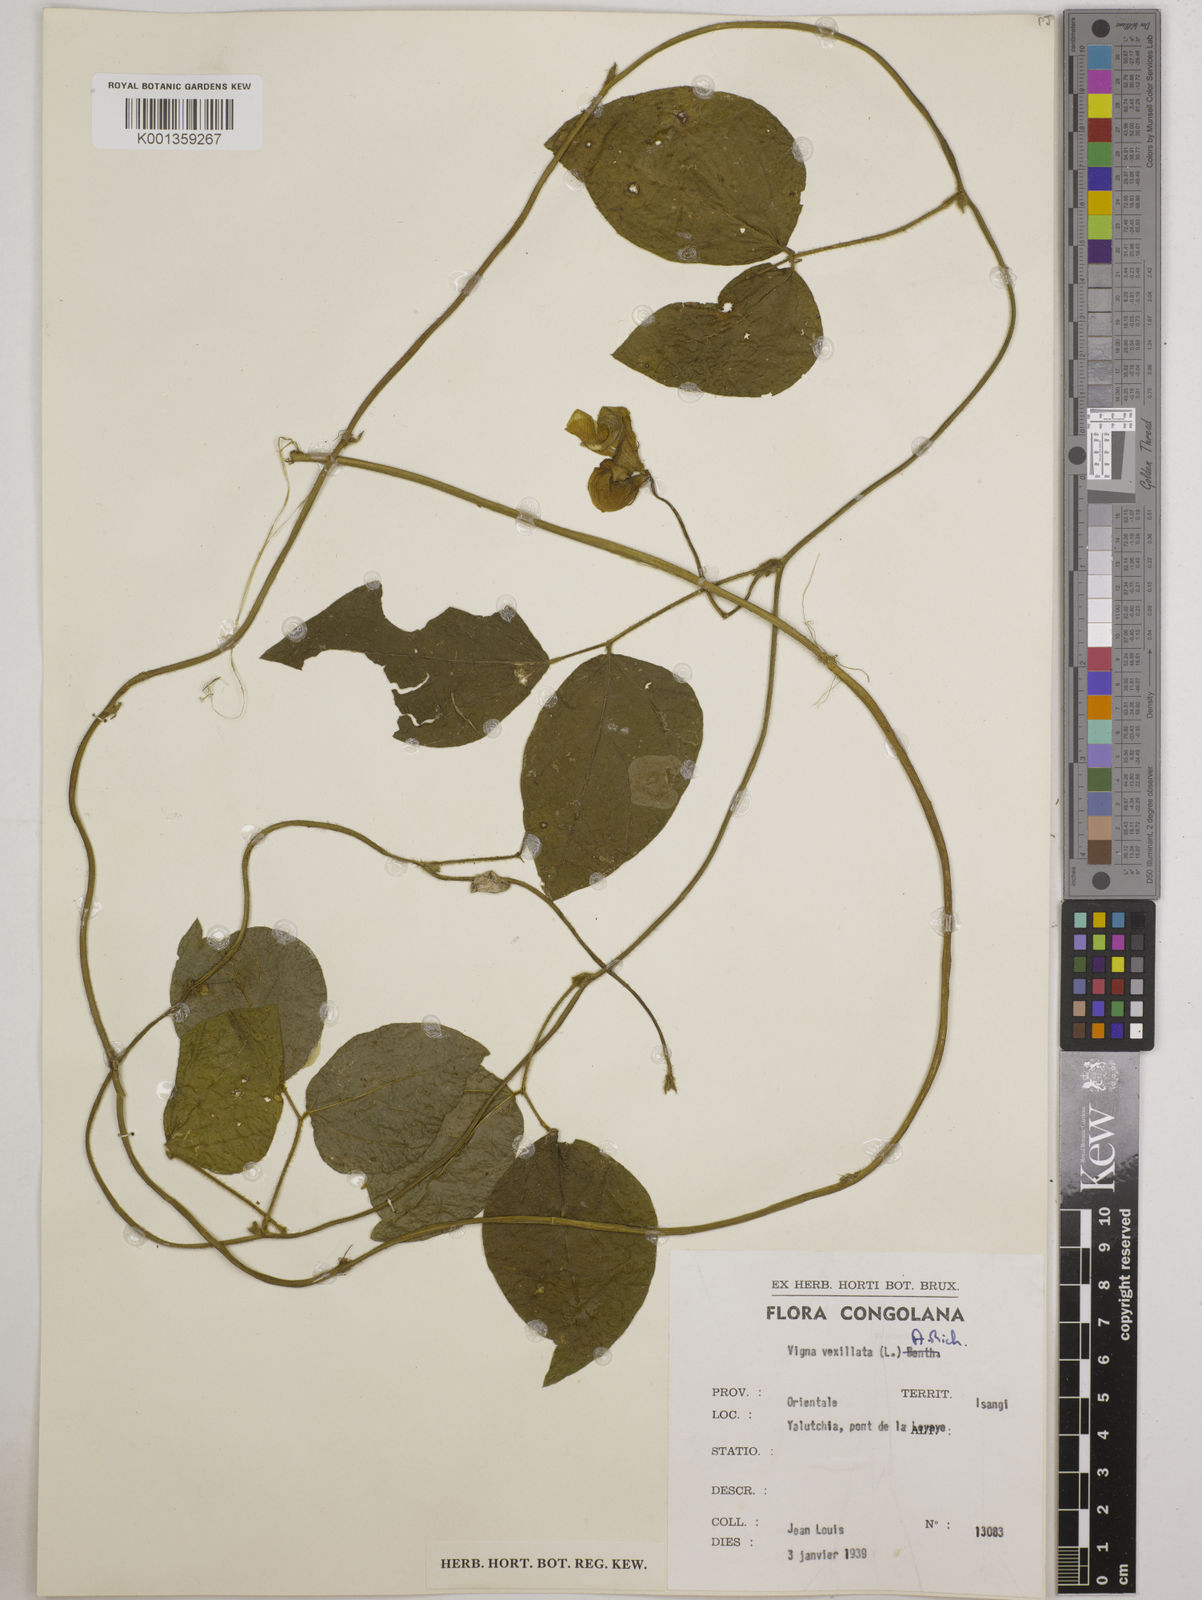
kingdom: Plantae
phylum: Tracheophyta
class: Magnoliopsida
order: Fabales
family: Fabaceae
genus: Vigna
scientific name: Vigna vexillata
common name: Zombi pea
